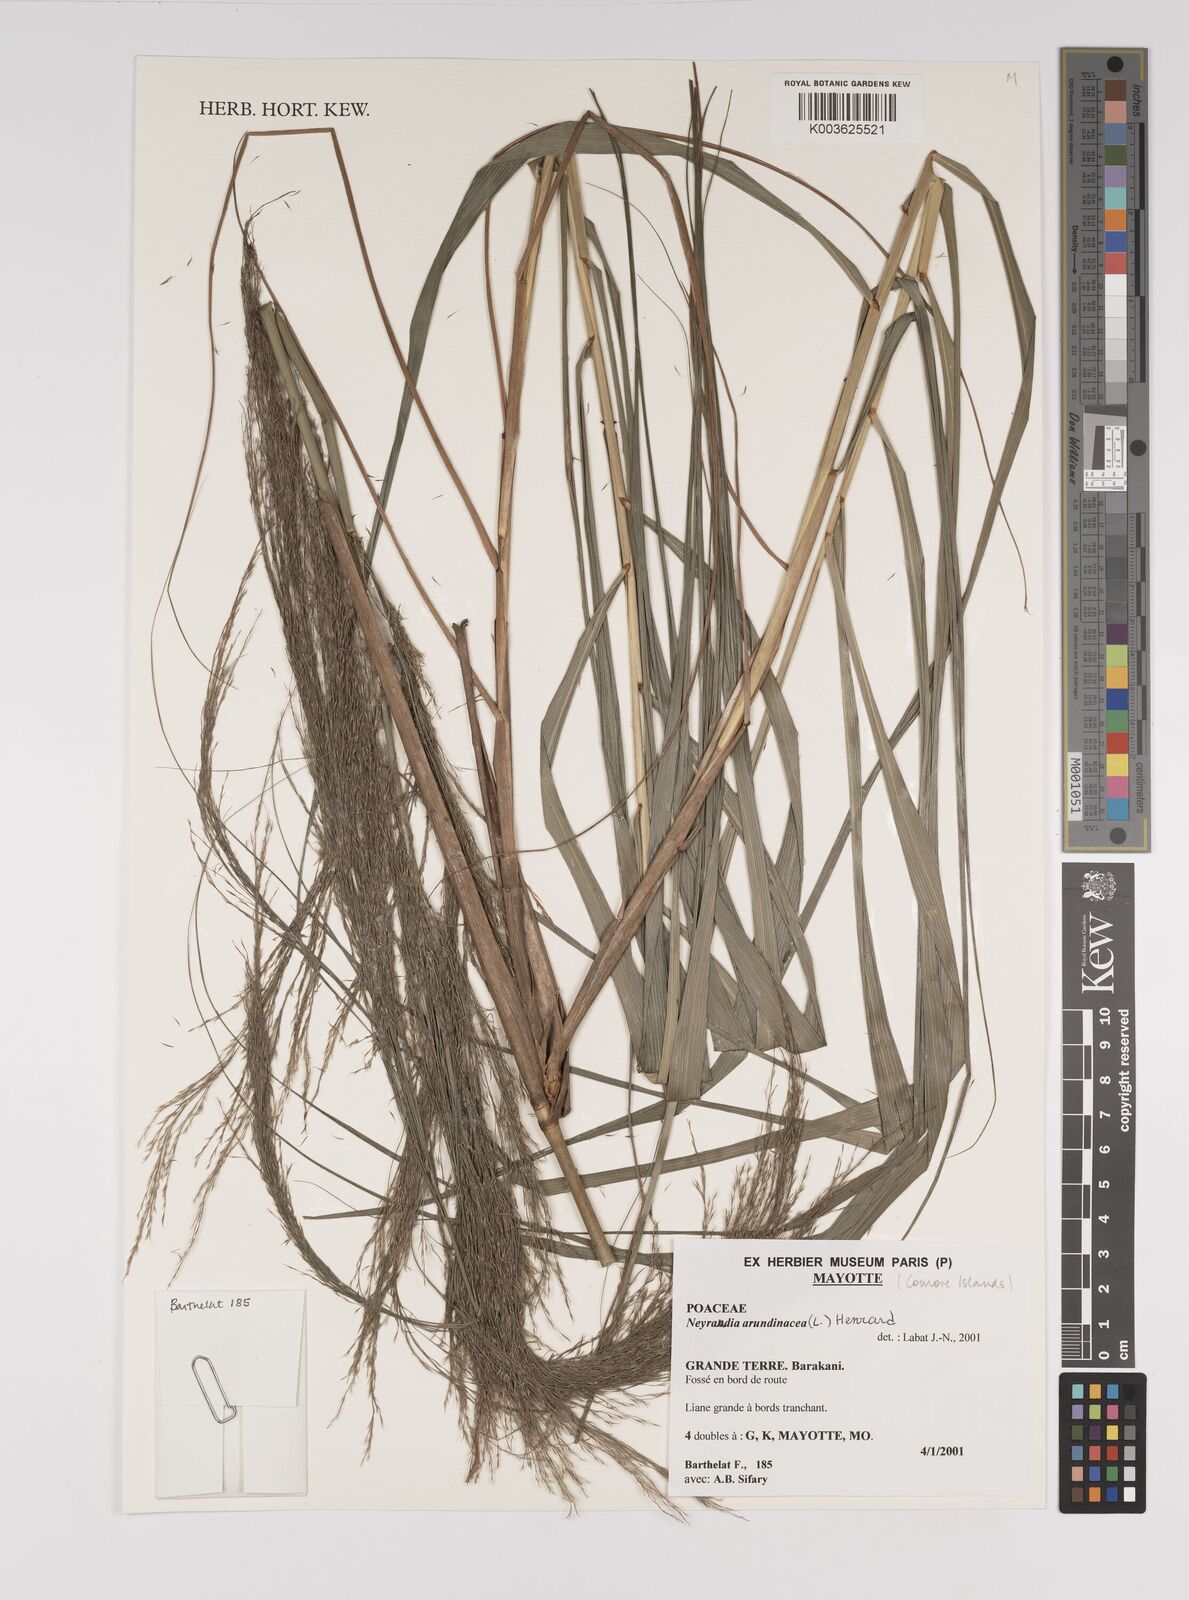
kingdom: Plantae
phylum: Tracheophyta
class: Liliopsida
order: Poales
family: Poaceae
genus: Neyraudia
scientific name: Neyraudia arundinacea
